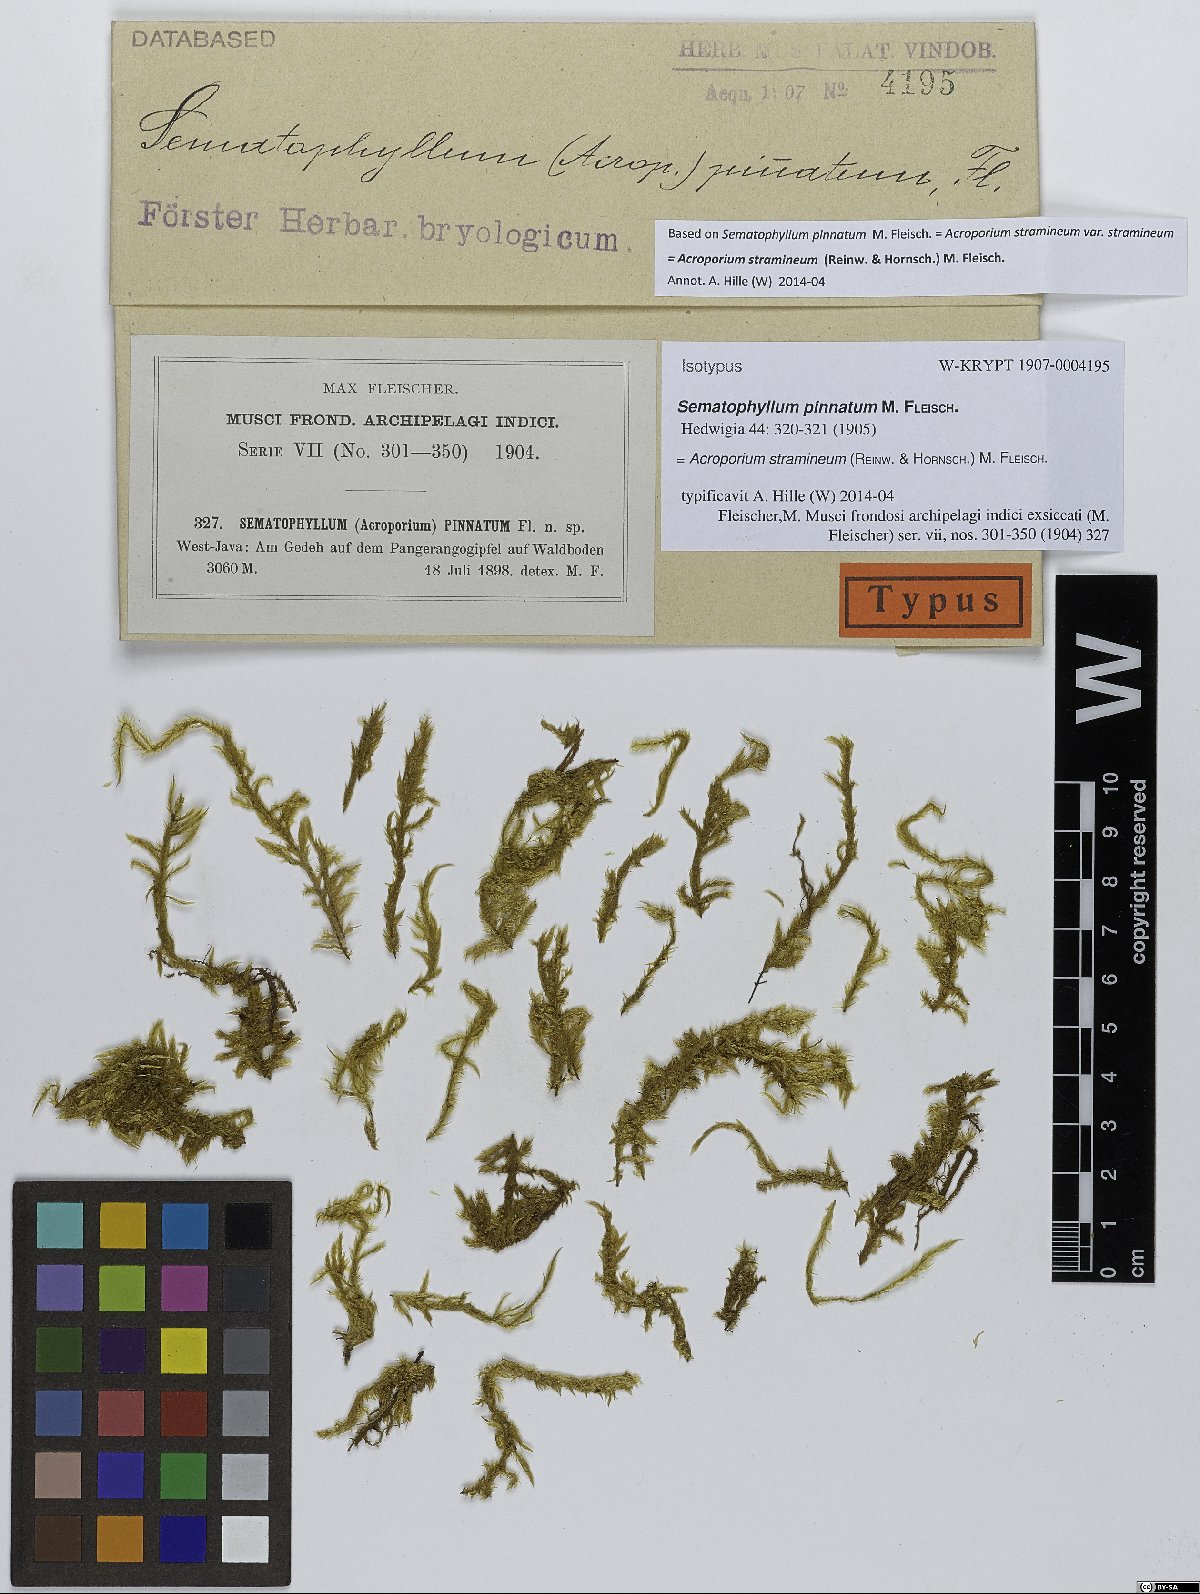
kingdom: Plantae
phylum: Bryophyta
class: Bryopsida
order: Hypnales
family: Sematophyllaceae
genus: Acroporium
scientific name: Acroporium warburgii
